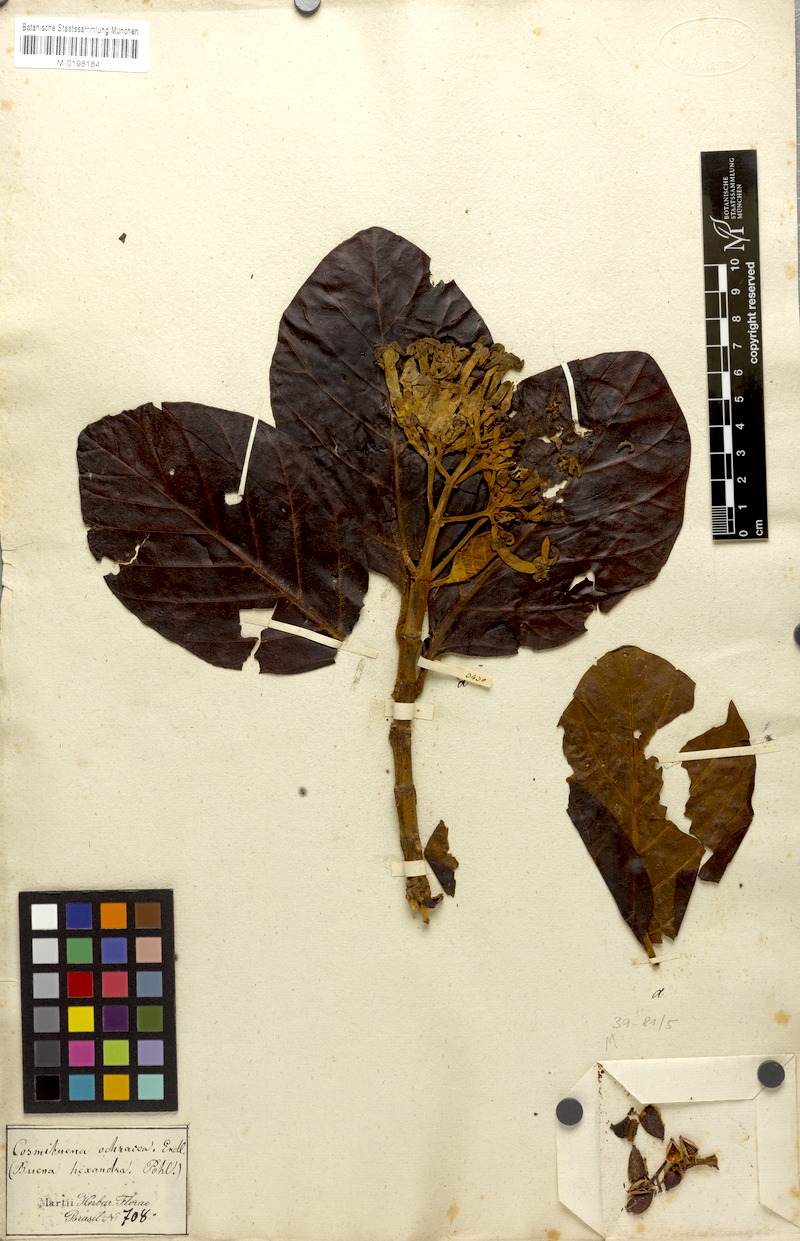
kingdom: Plantae
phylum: Tracheophyta
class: Magnoliopsida
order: Gentianales
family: Rubiaceae
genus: Ladenbergia
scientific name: Ladenbergia hexandra
